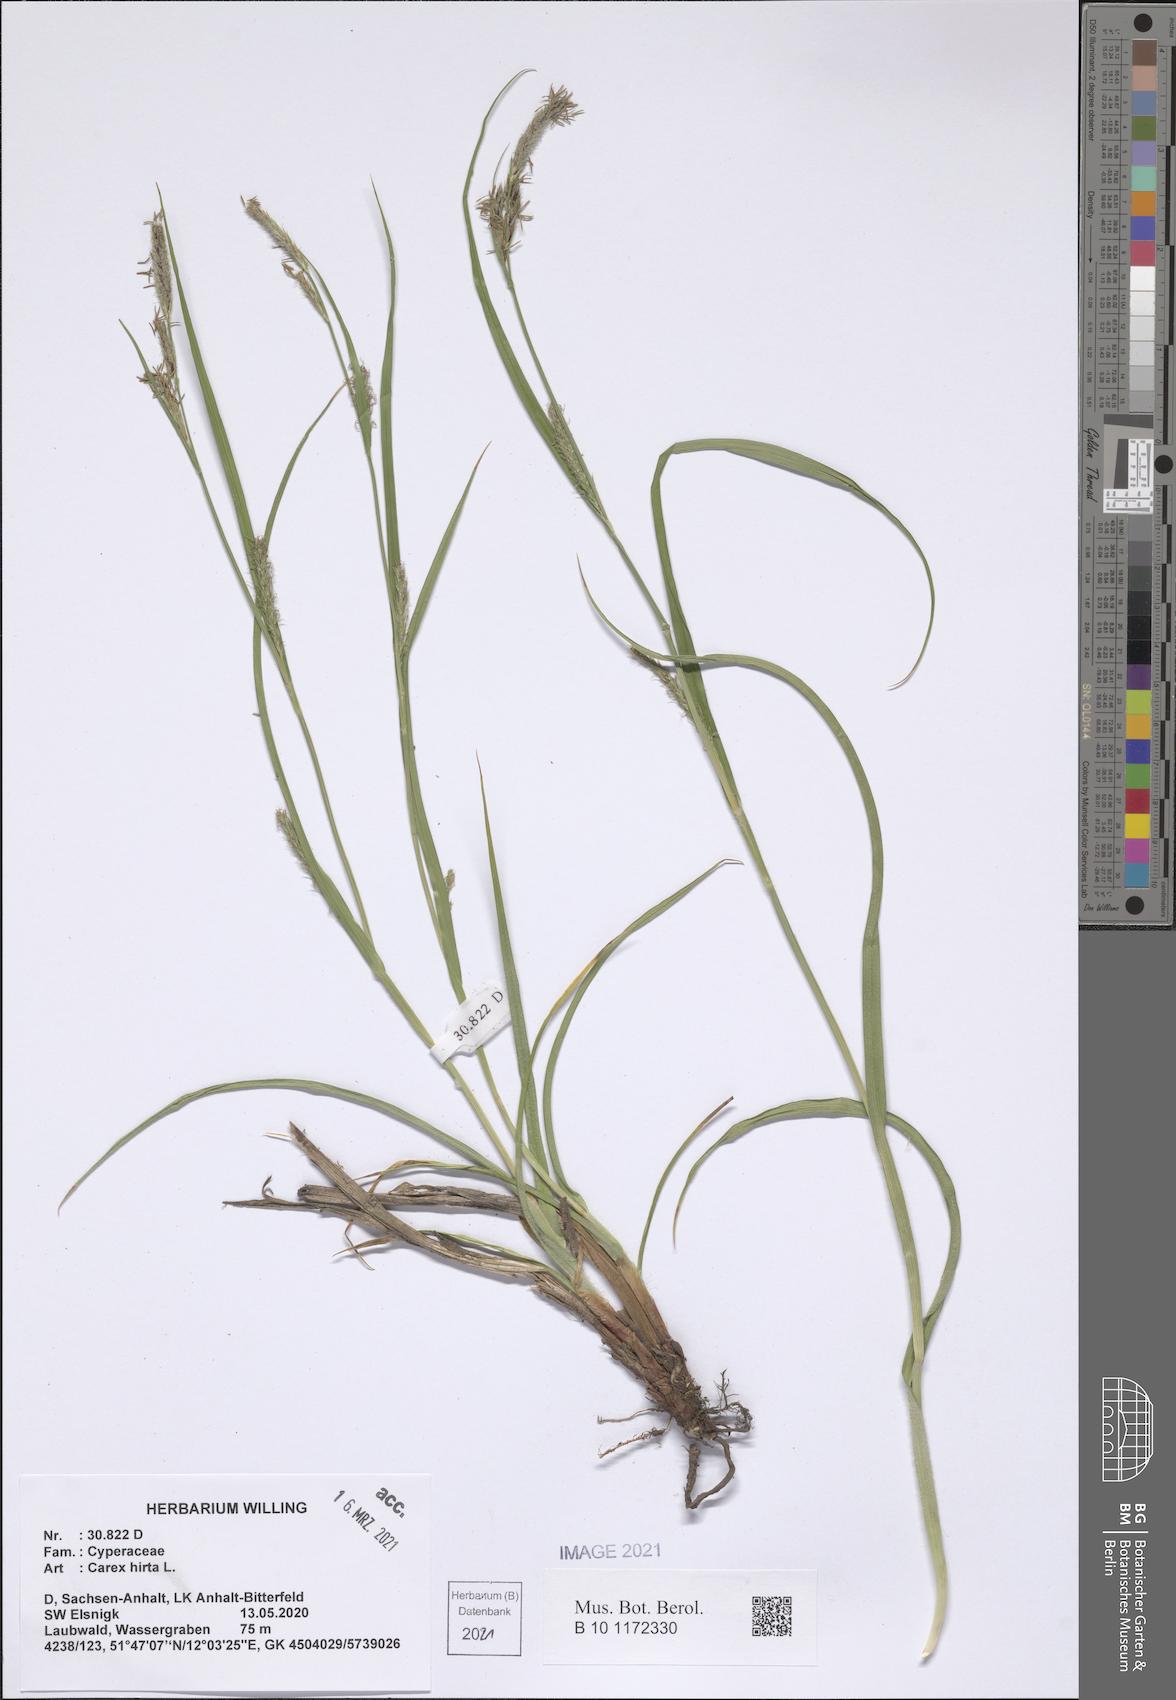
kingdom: Plantae
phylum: Tracheophyta
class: Liliopsida
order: Poales
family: Cyperaceae
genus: Carex
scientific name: Carex hirta
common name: Hairy sedge
